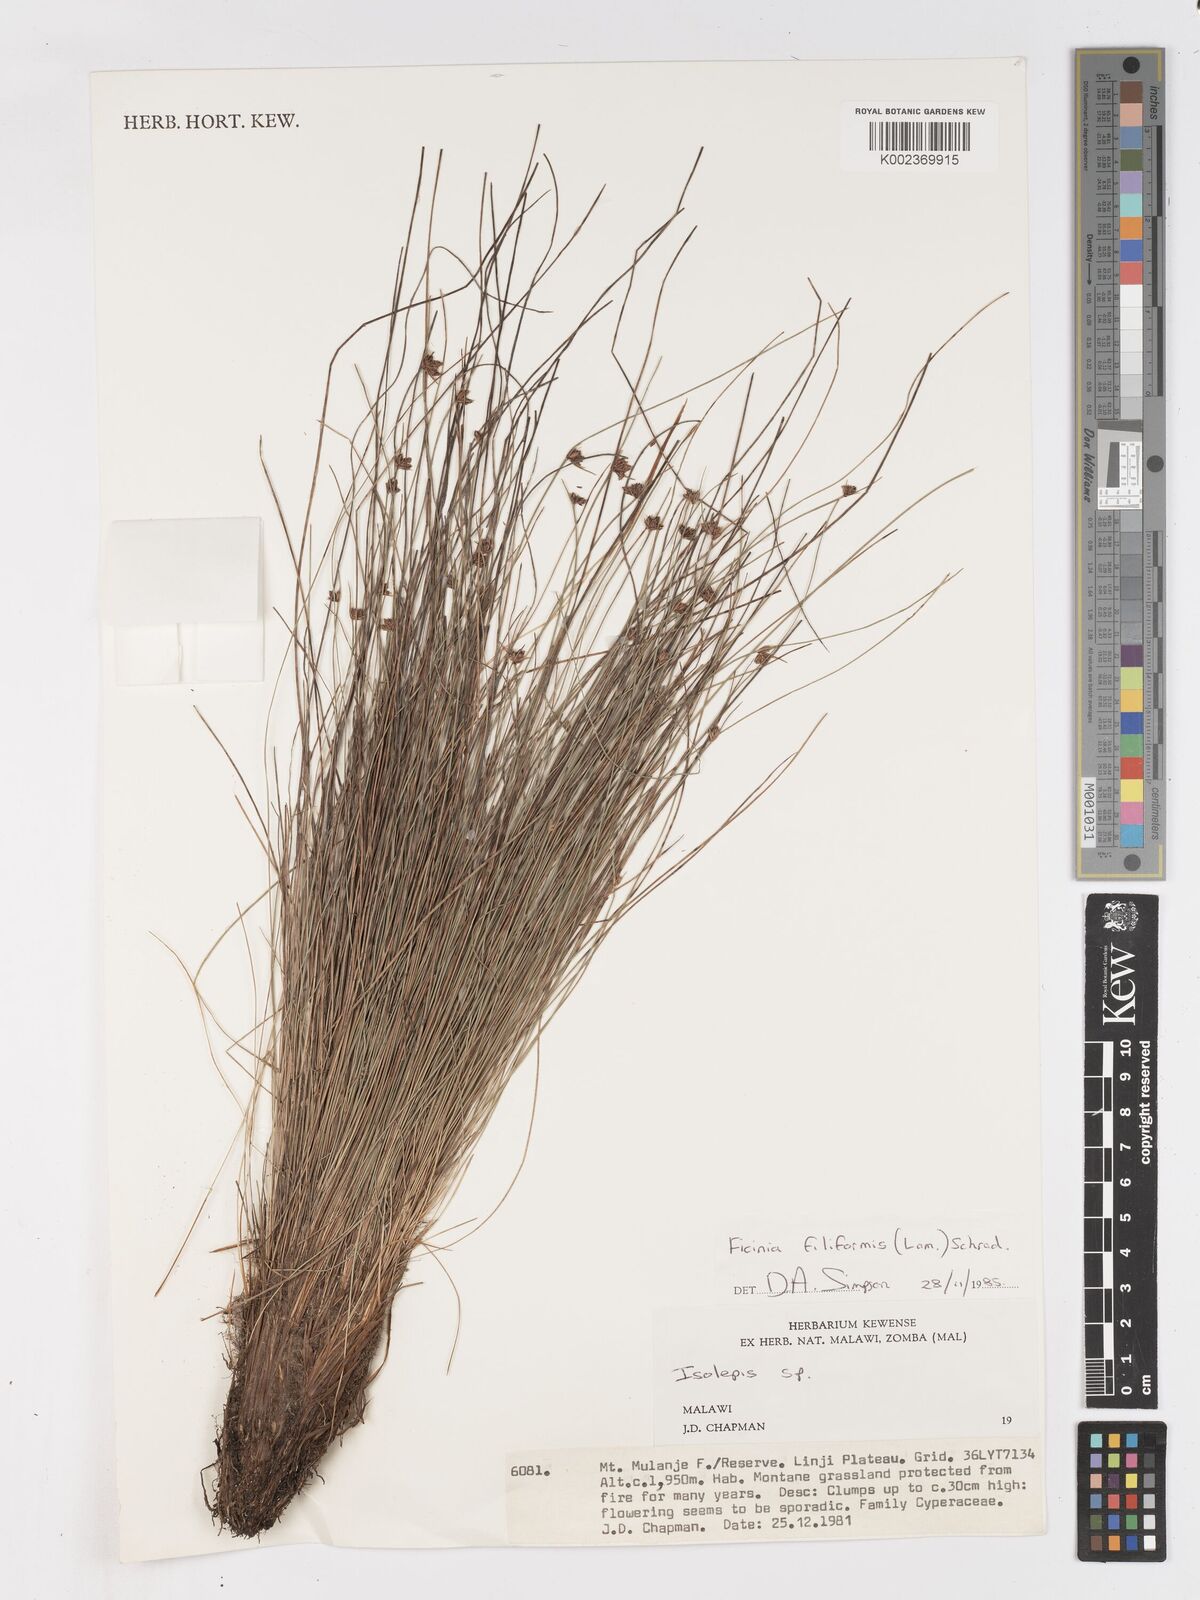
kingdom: Plantae
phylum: Tracheophyta
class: Liliopsida
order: Poales
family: Cyperaceae
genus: Ficinia
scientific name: Ficinia stolonifera
